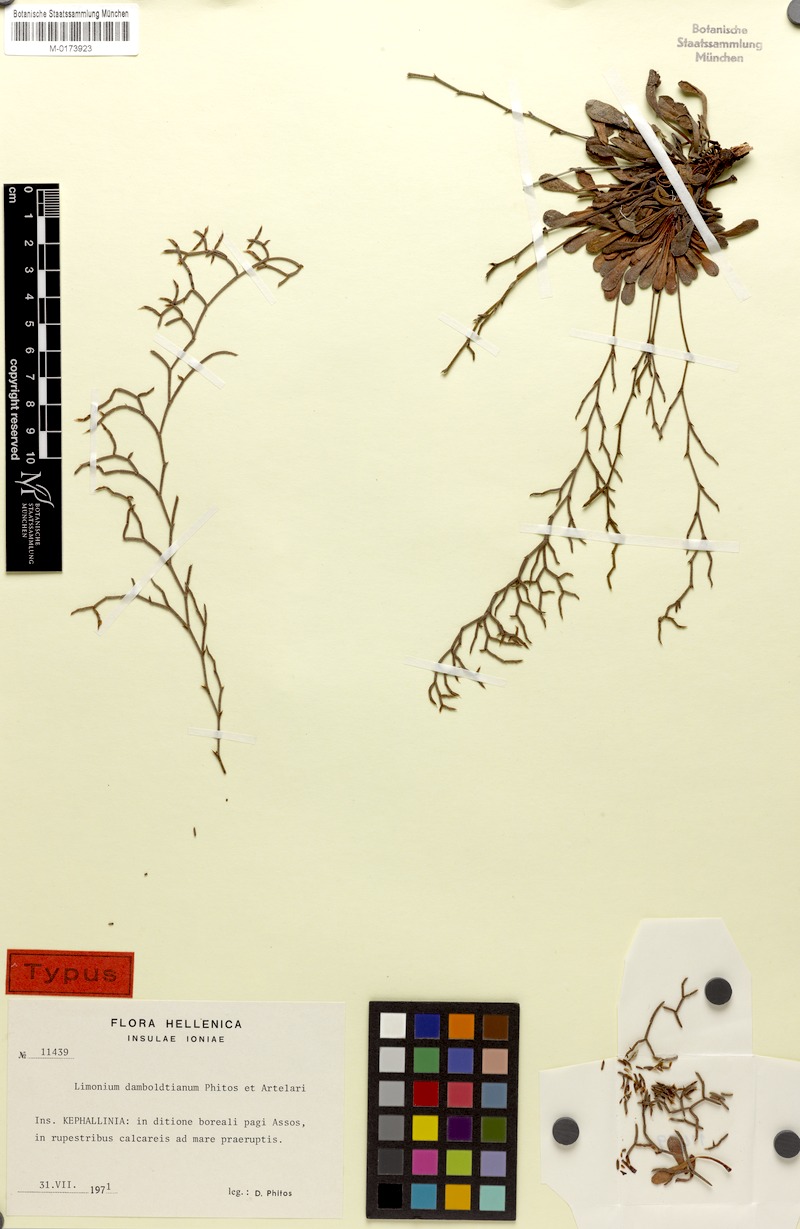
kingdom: Plantae
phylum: Tracheophyta
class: Magnoliopsida
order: Caryophyllales
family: Plumbaginaceae
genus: Limonium
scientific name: Limonium damboldtianum
